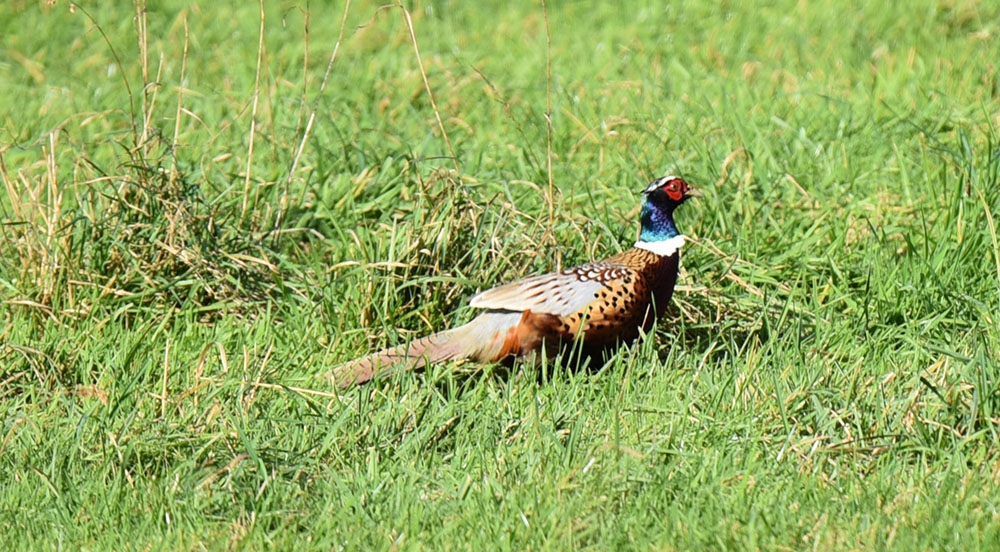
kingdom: Animalia
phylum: Chordata
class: Aves
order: Galliformes
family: Phasianidae
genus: Phasianus
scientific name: Phasianus colchicus
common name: Common pheasant
